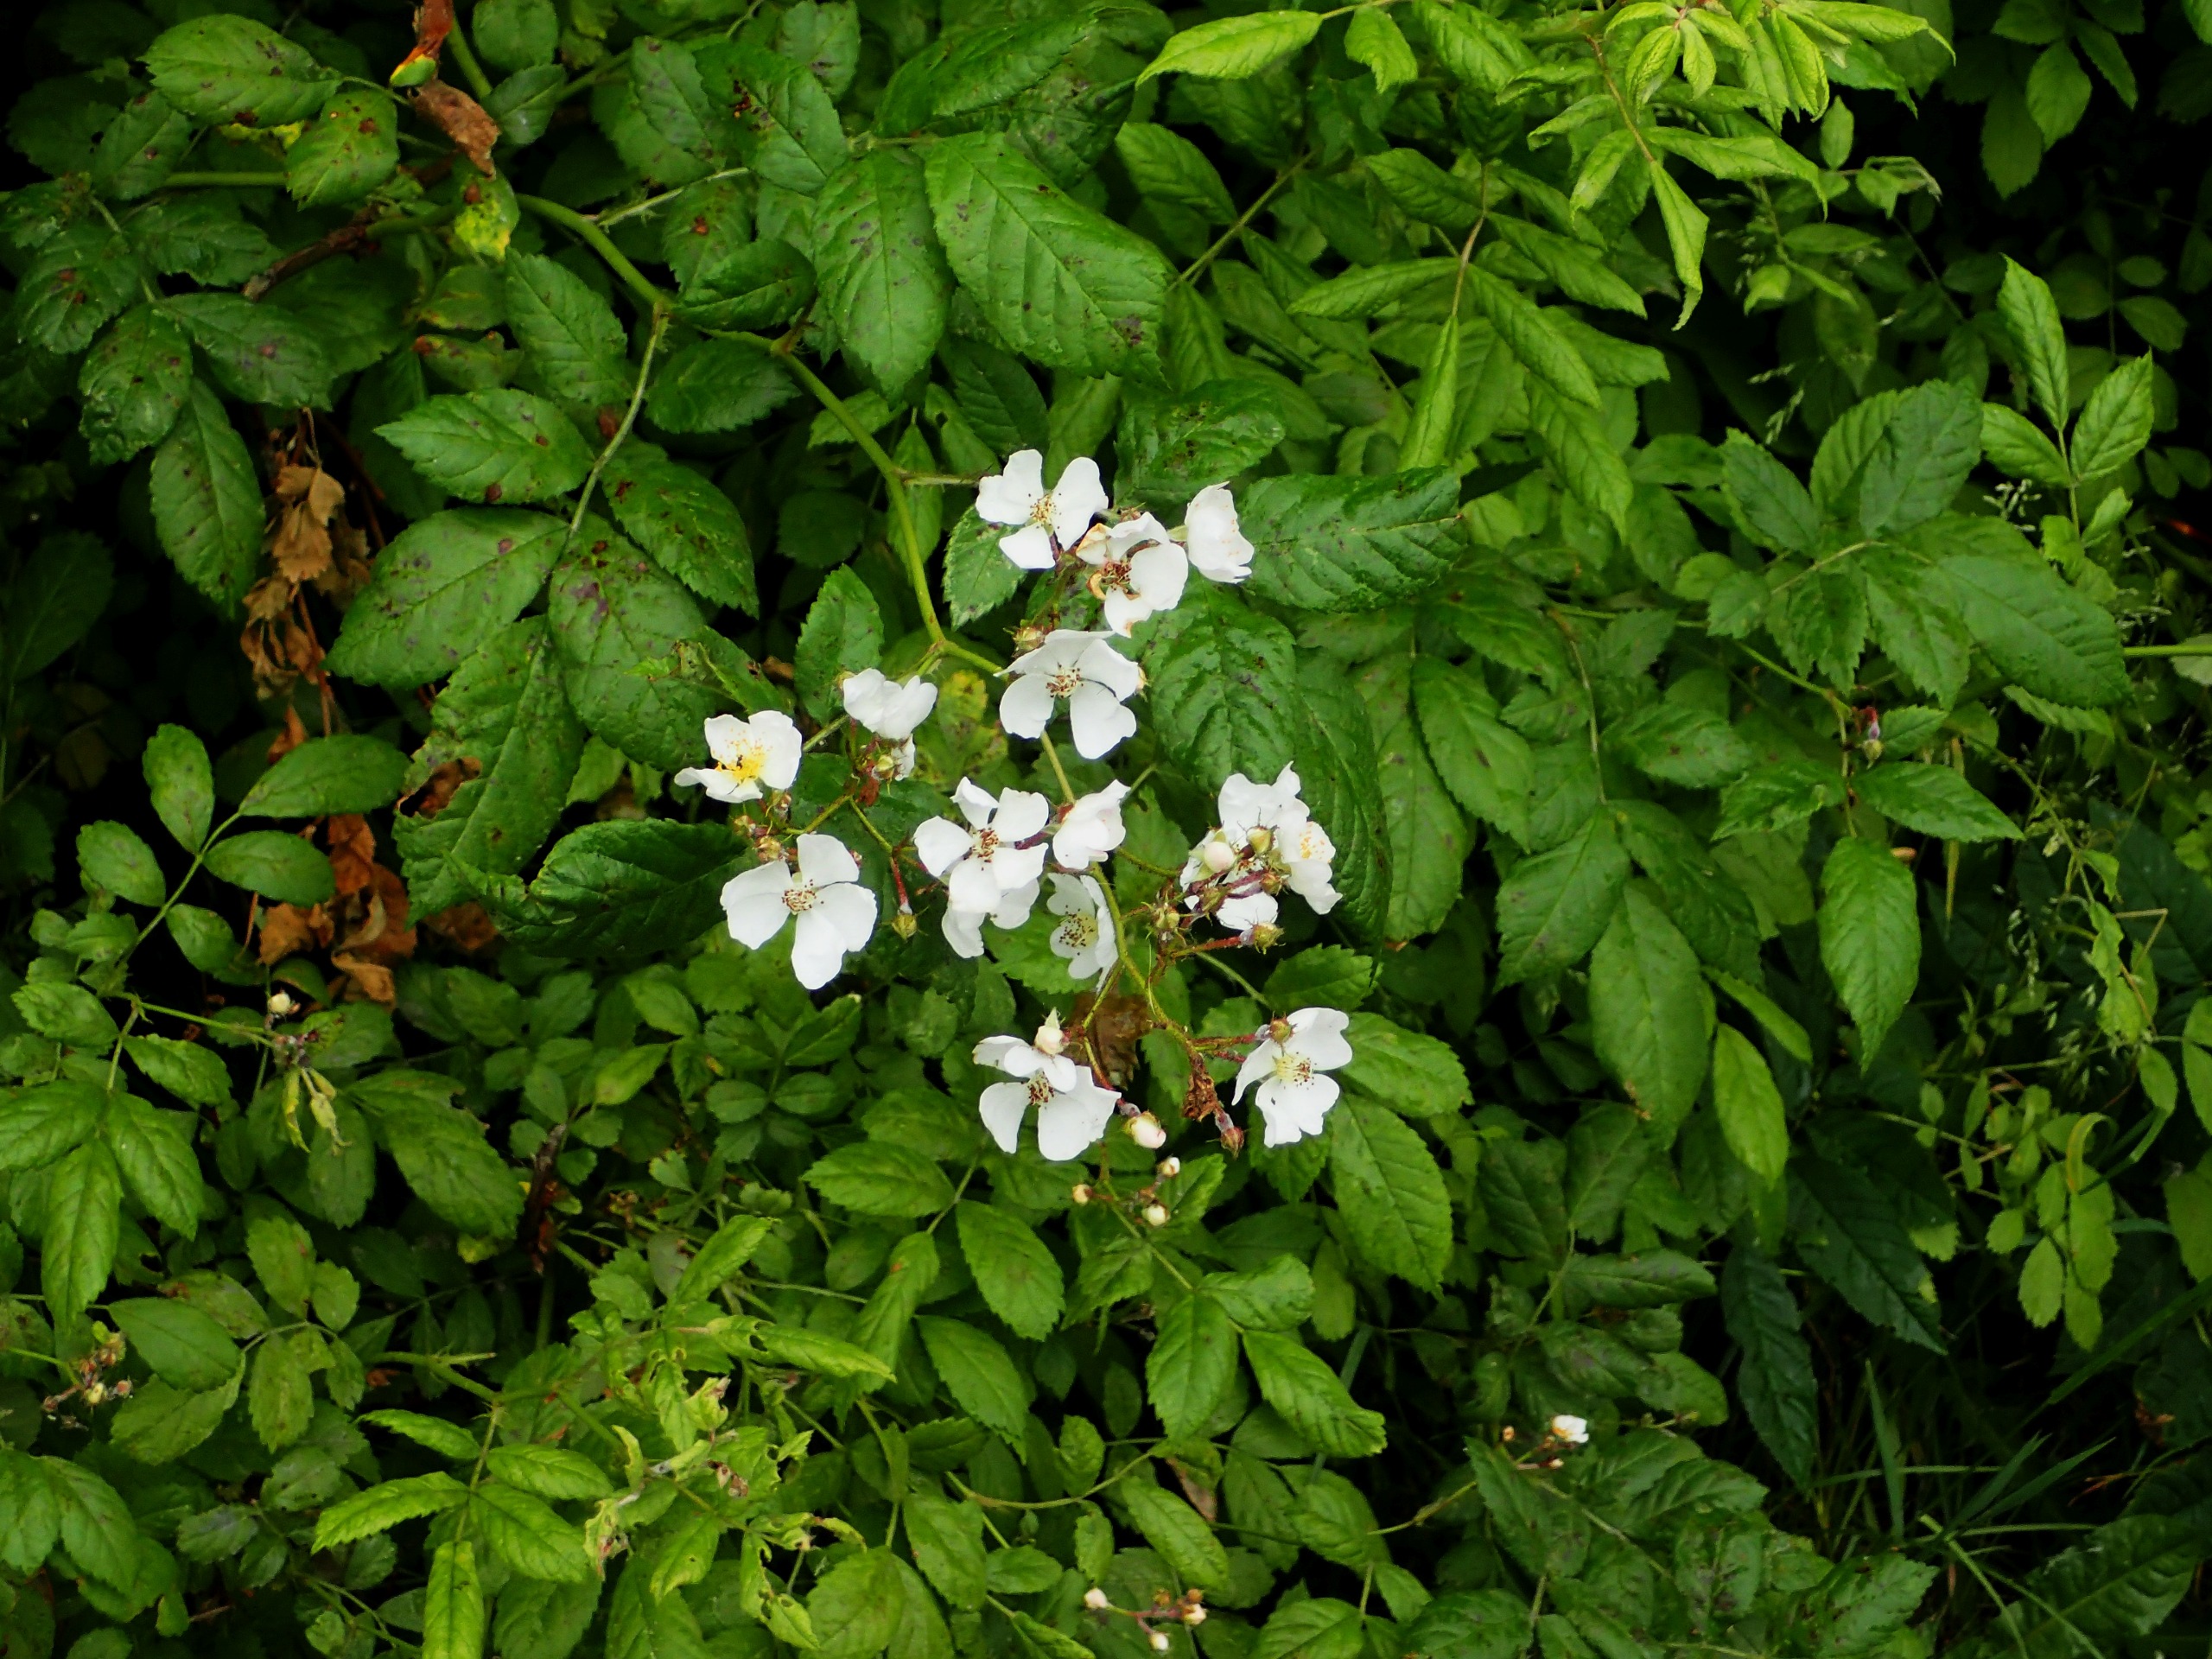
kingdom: Plantae
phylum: Tracheophyta
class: Magnoliopsida
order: Rosales
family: Rosaceae
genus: Rosa
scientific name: Rosa multiflora
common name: Mangeblomstret rose
